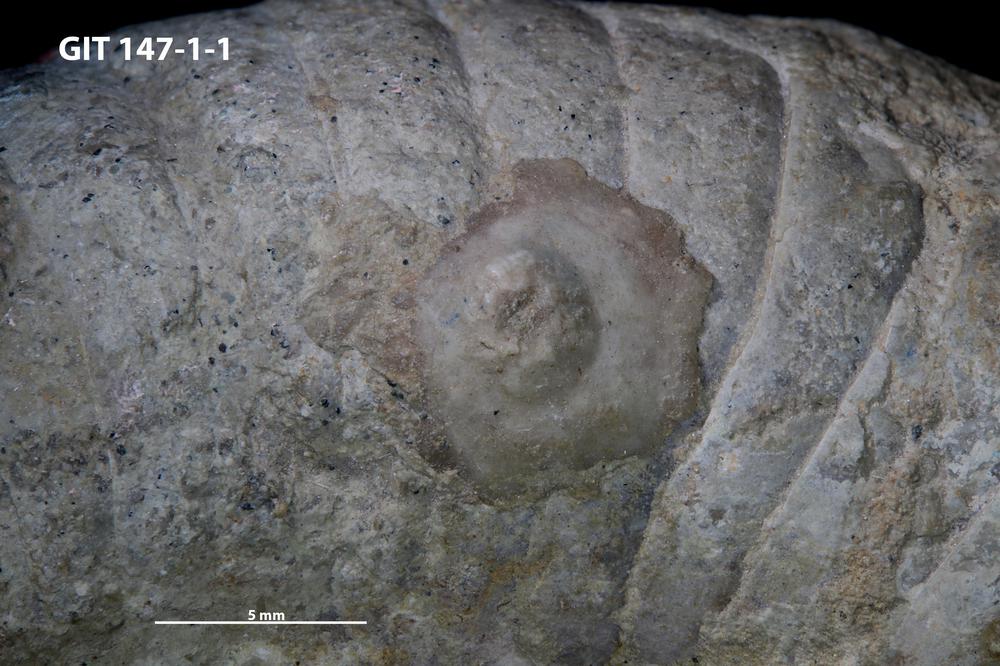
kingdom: Animalia
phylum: Echinodermata
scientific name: Echinodermata
